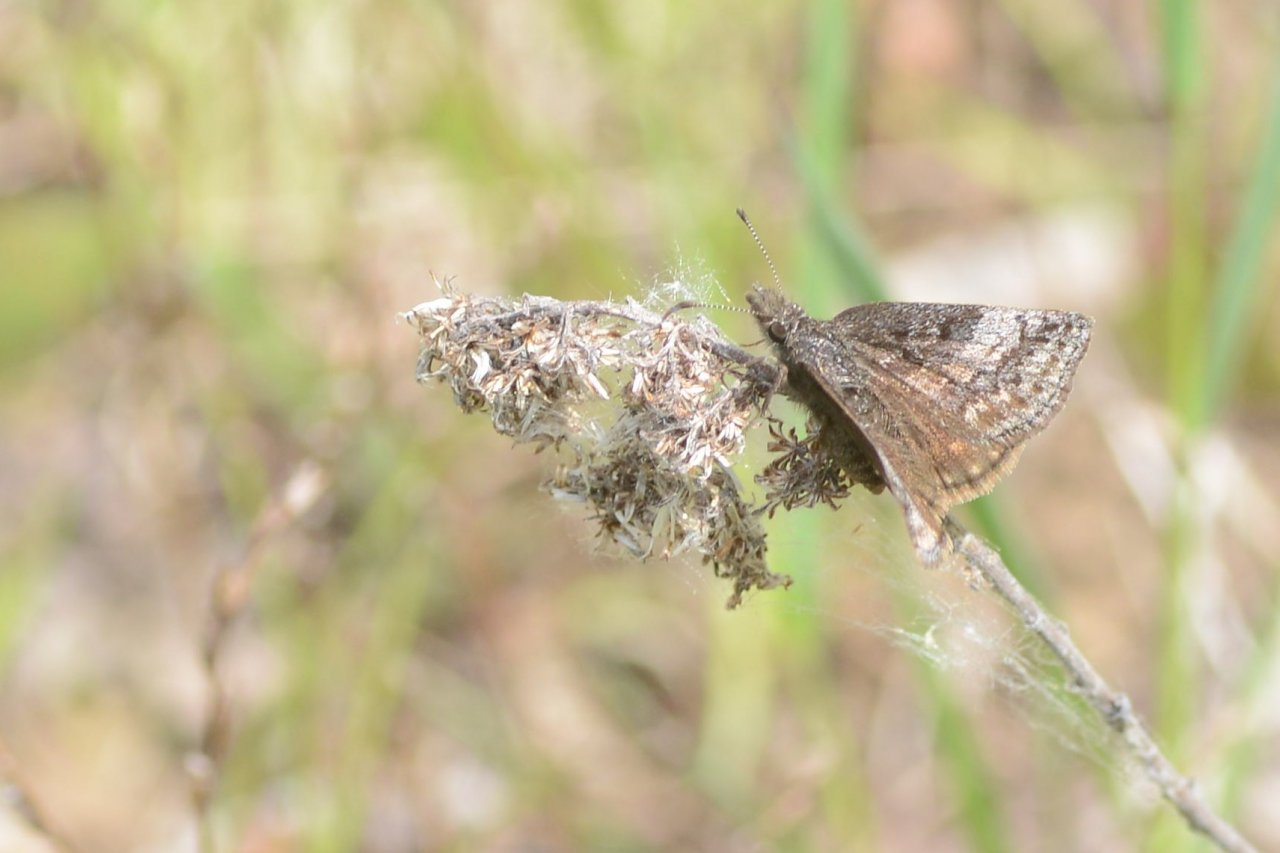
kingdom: Animalia
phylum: Arthropoda
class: Insecta
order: Lepidoptera
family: Hesperiidae
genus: Erynnis
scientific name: Erynnis icelus
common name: Dreamy Duskywing
